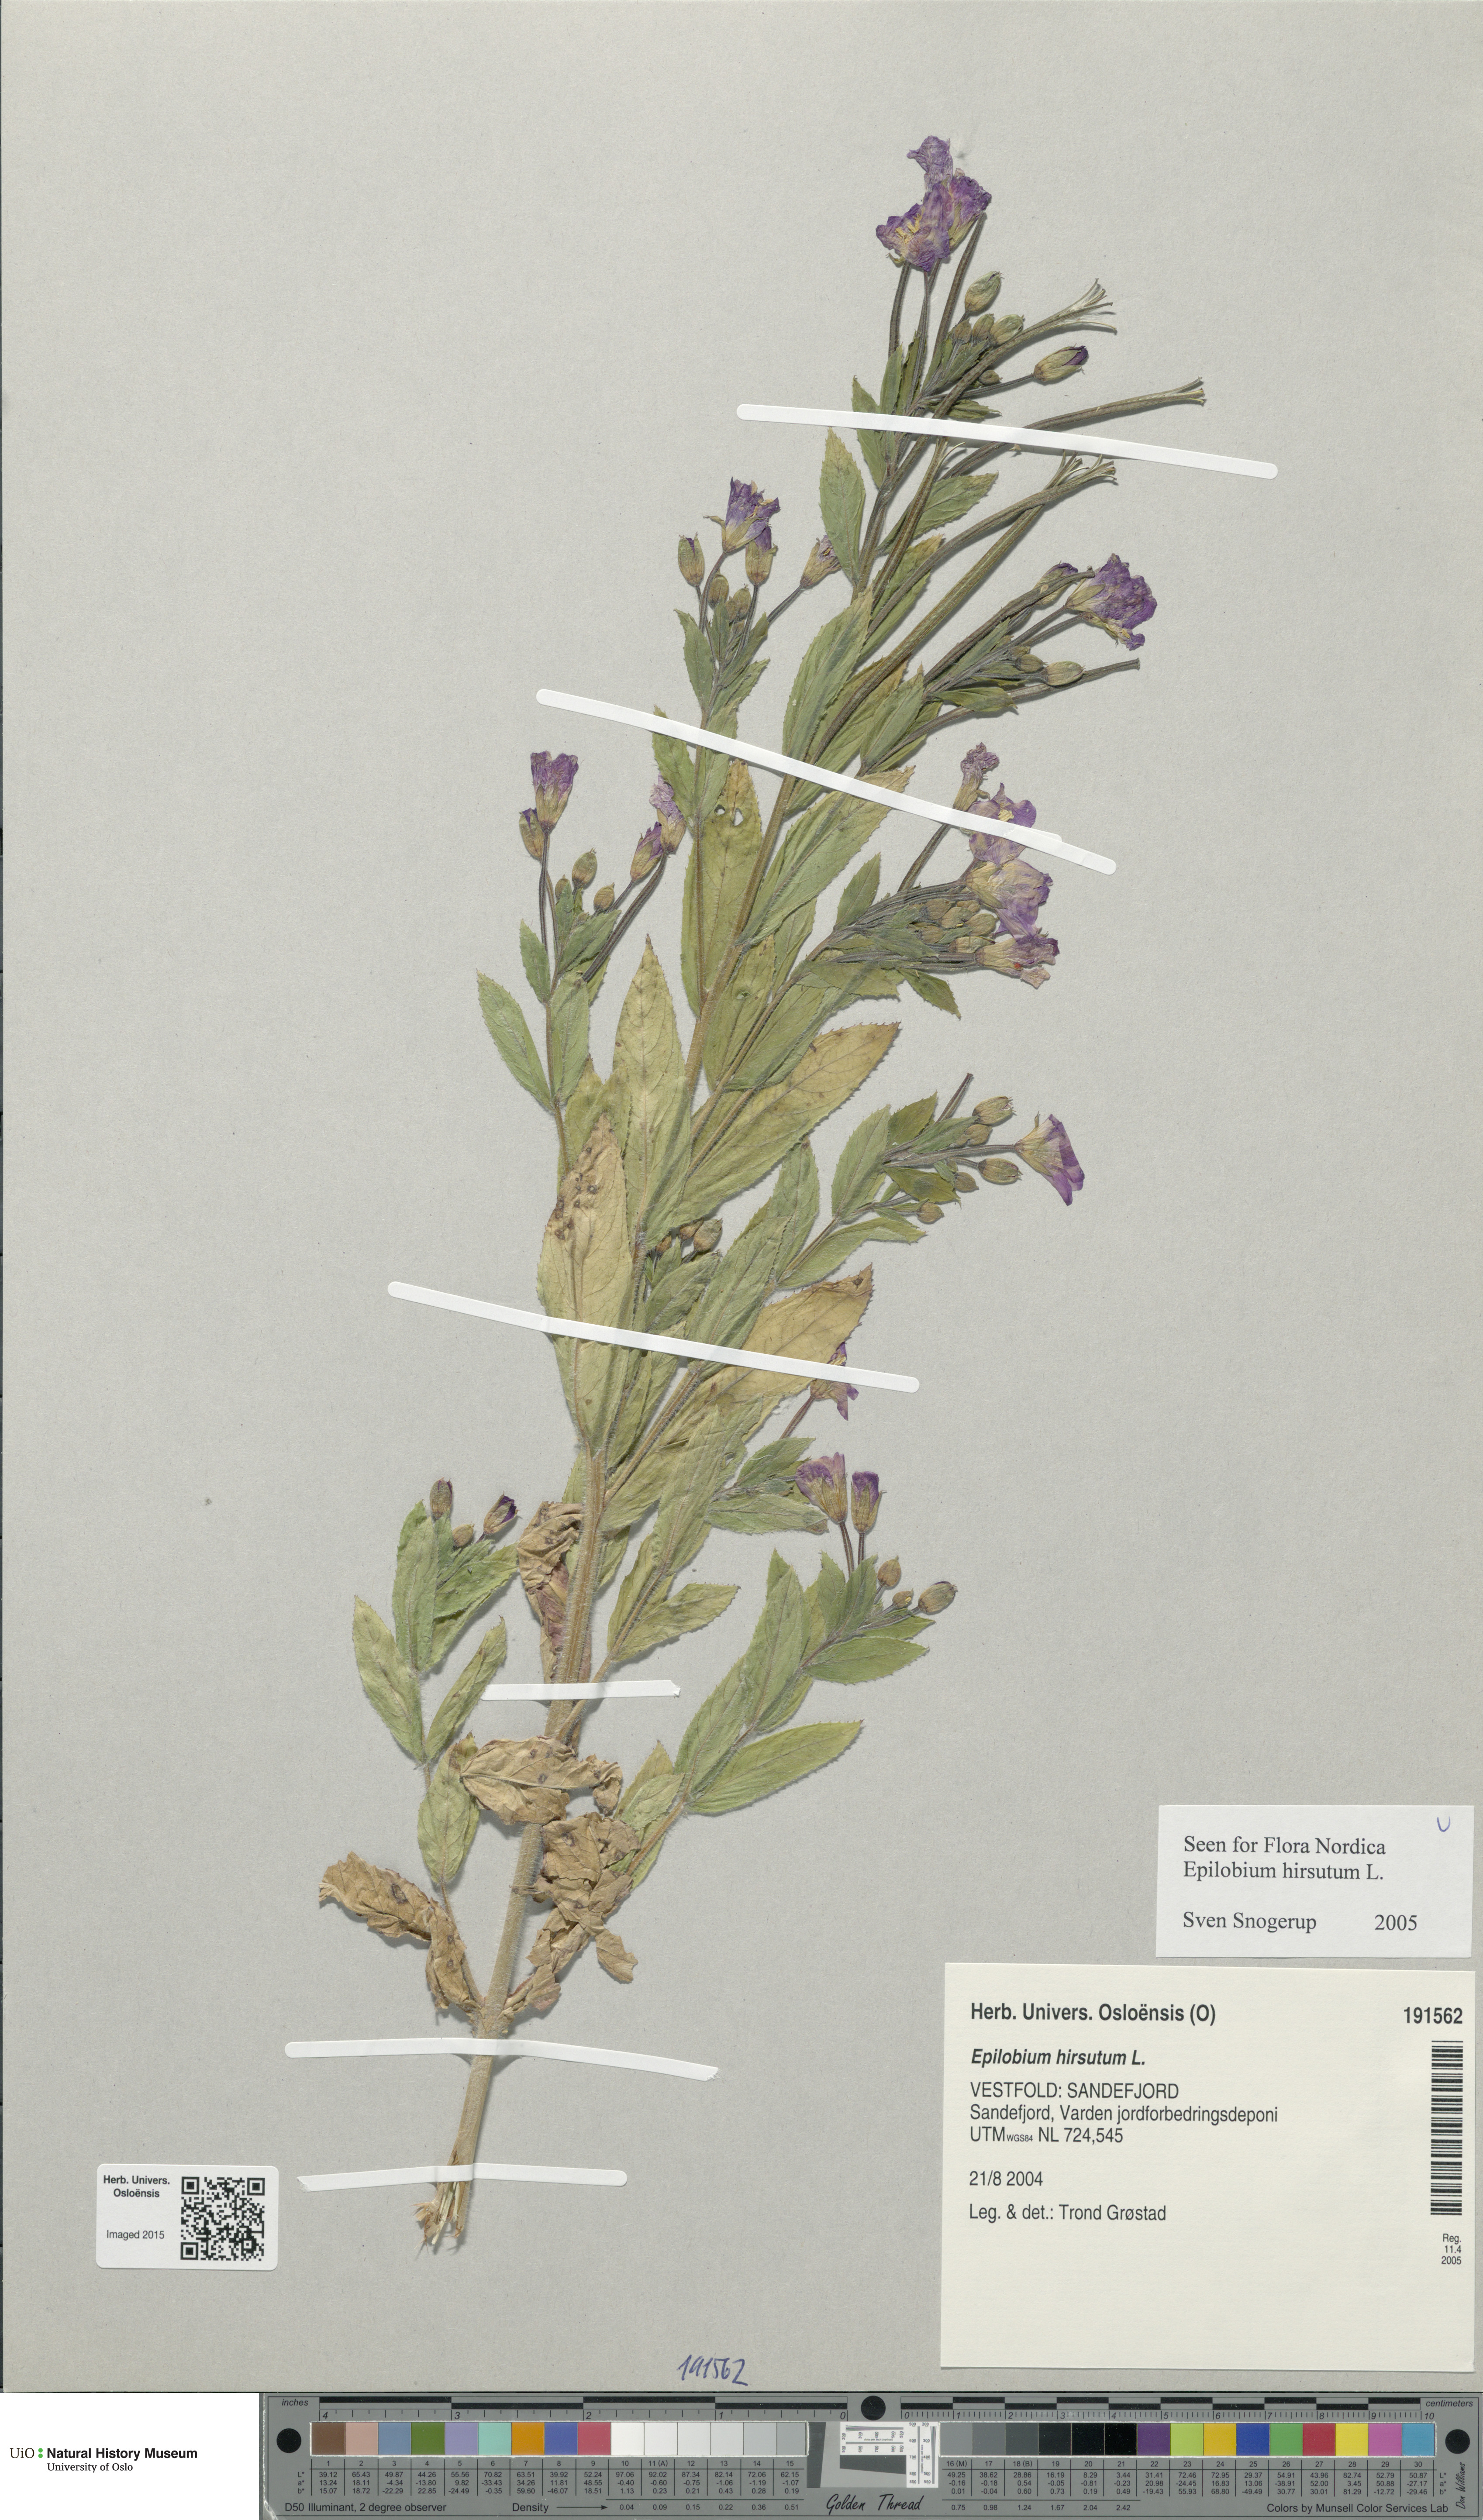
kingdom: Plantae
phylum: Tracheophyta
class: Magnoliopsida
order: Myrtales
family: Onagraceae
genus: Epilobium
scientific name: Epilobium hirsutum
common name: Great willowherb
